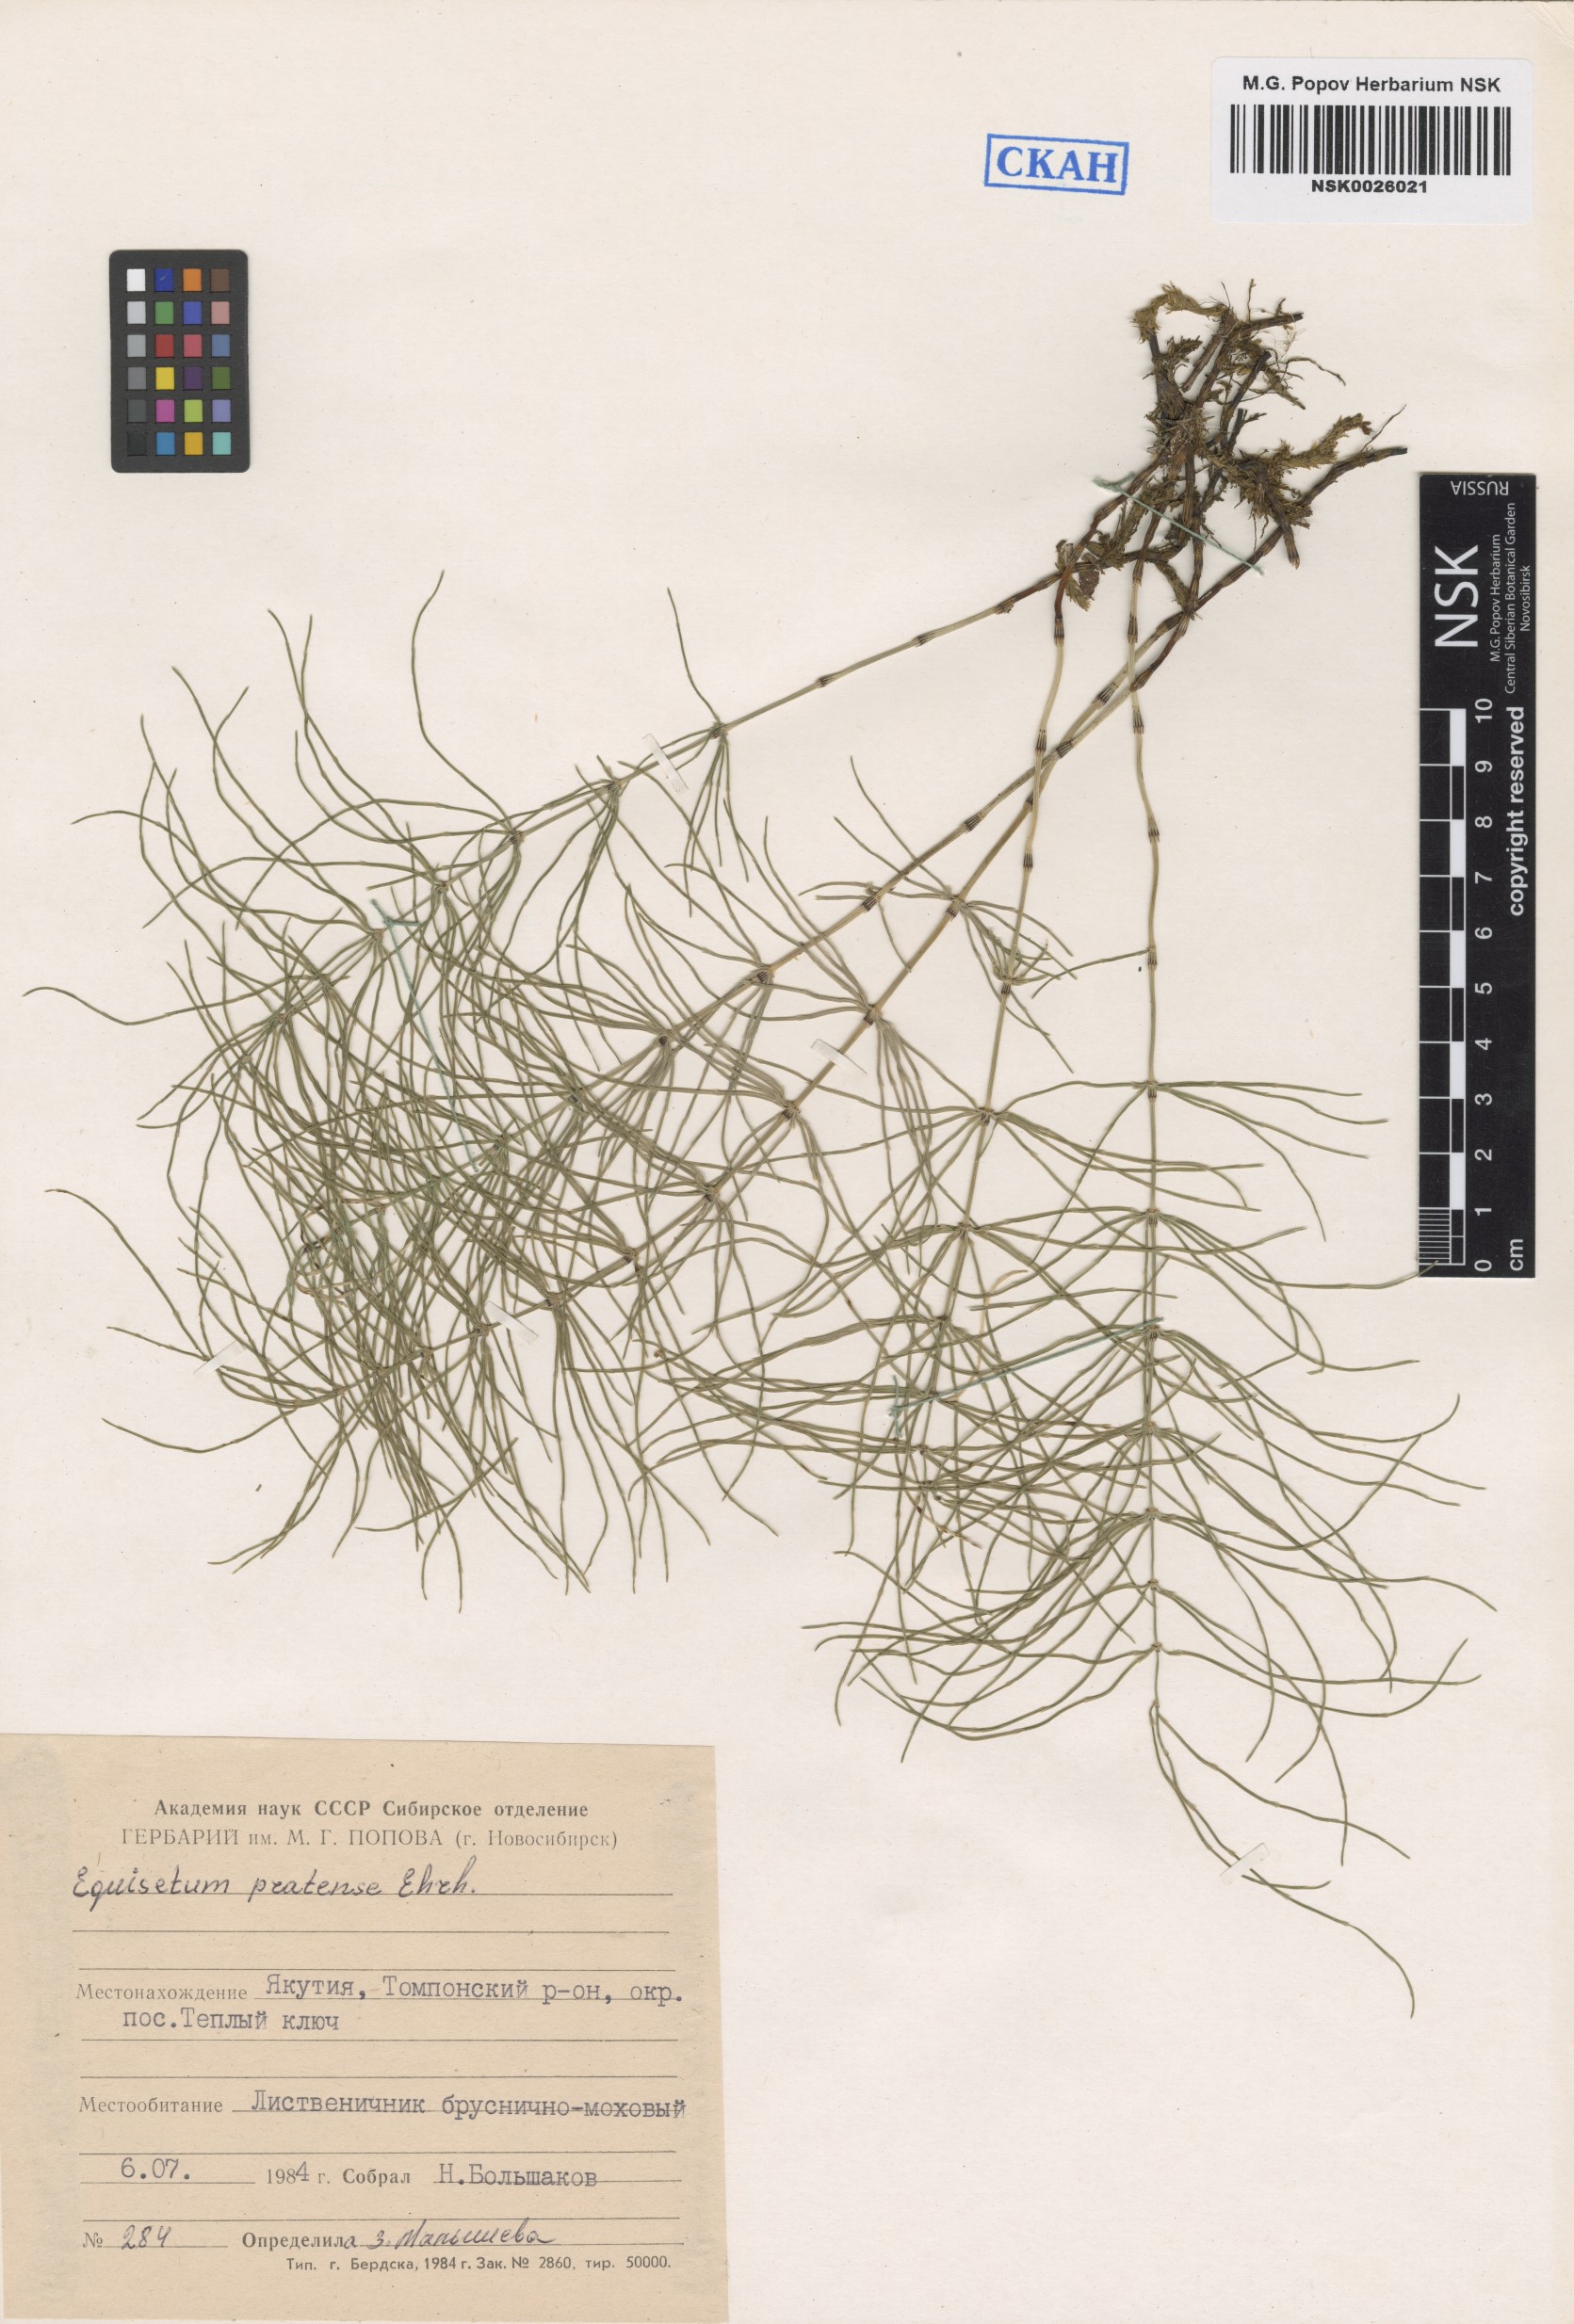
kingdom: Plantae
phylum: Tracheophyta
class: Polypodiopsida
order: Equisetales
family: Equisetaceae
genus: Equisetum
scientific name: Equisetum pratense
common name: Meadow horsetail
